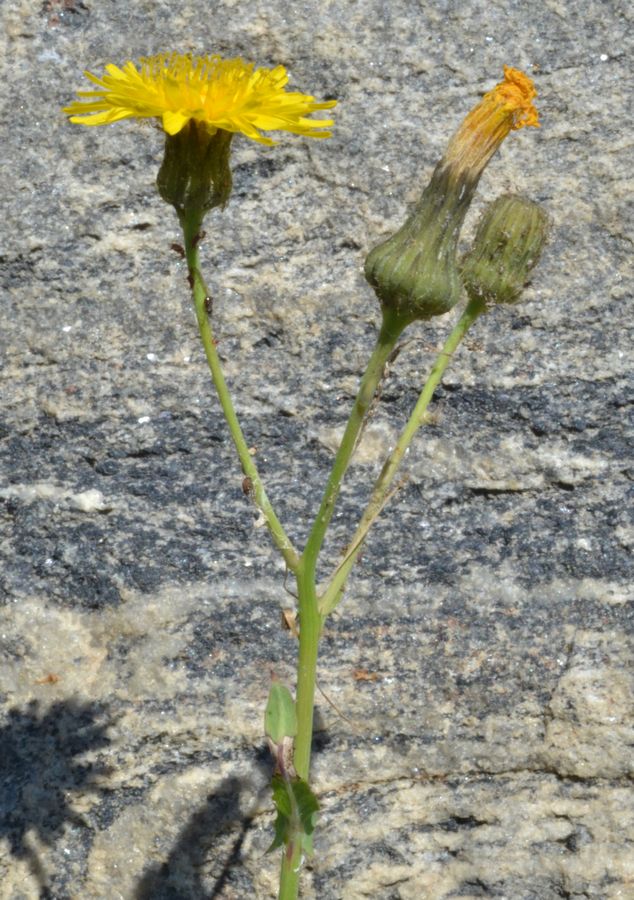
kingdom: Plantae
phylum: Tracheophyta
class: Magnoliopsida
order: Asterales
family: Asteraceae
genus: Sonchus
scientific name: Sonchus arvensis
